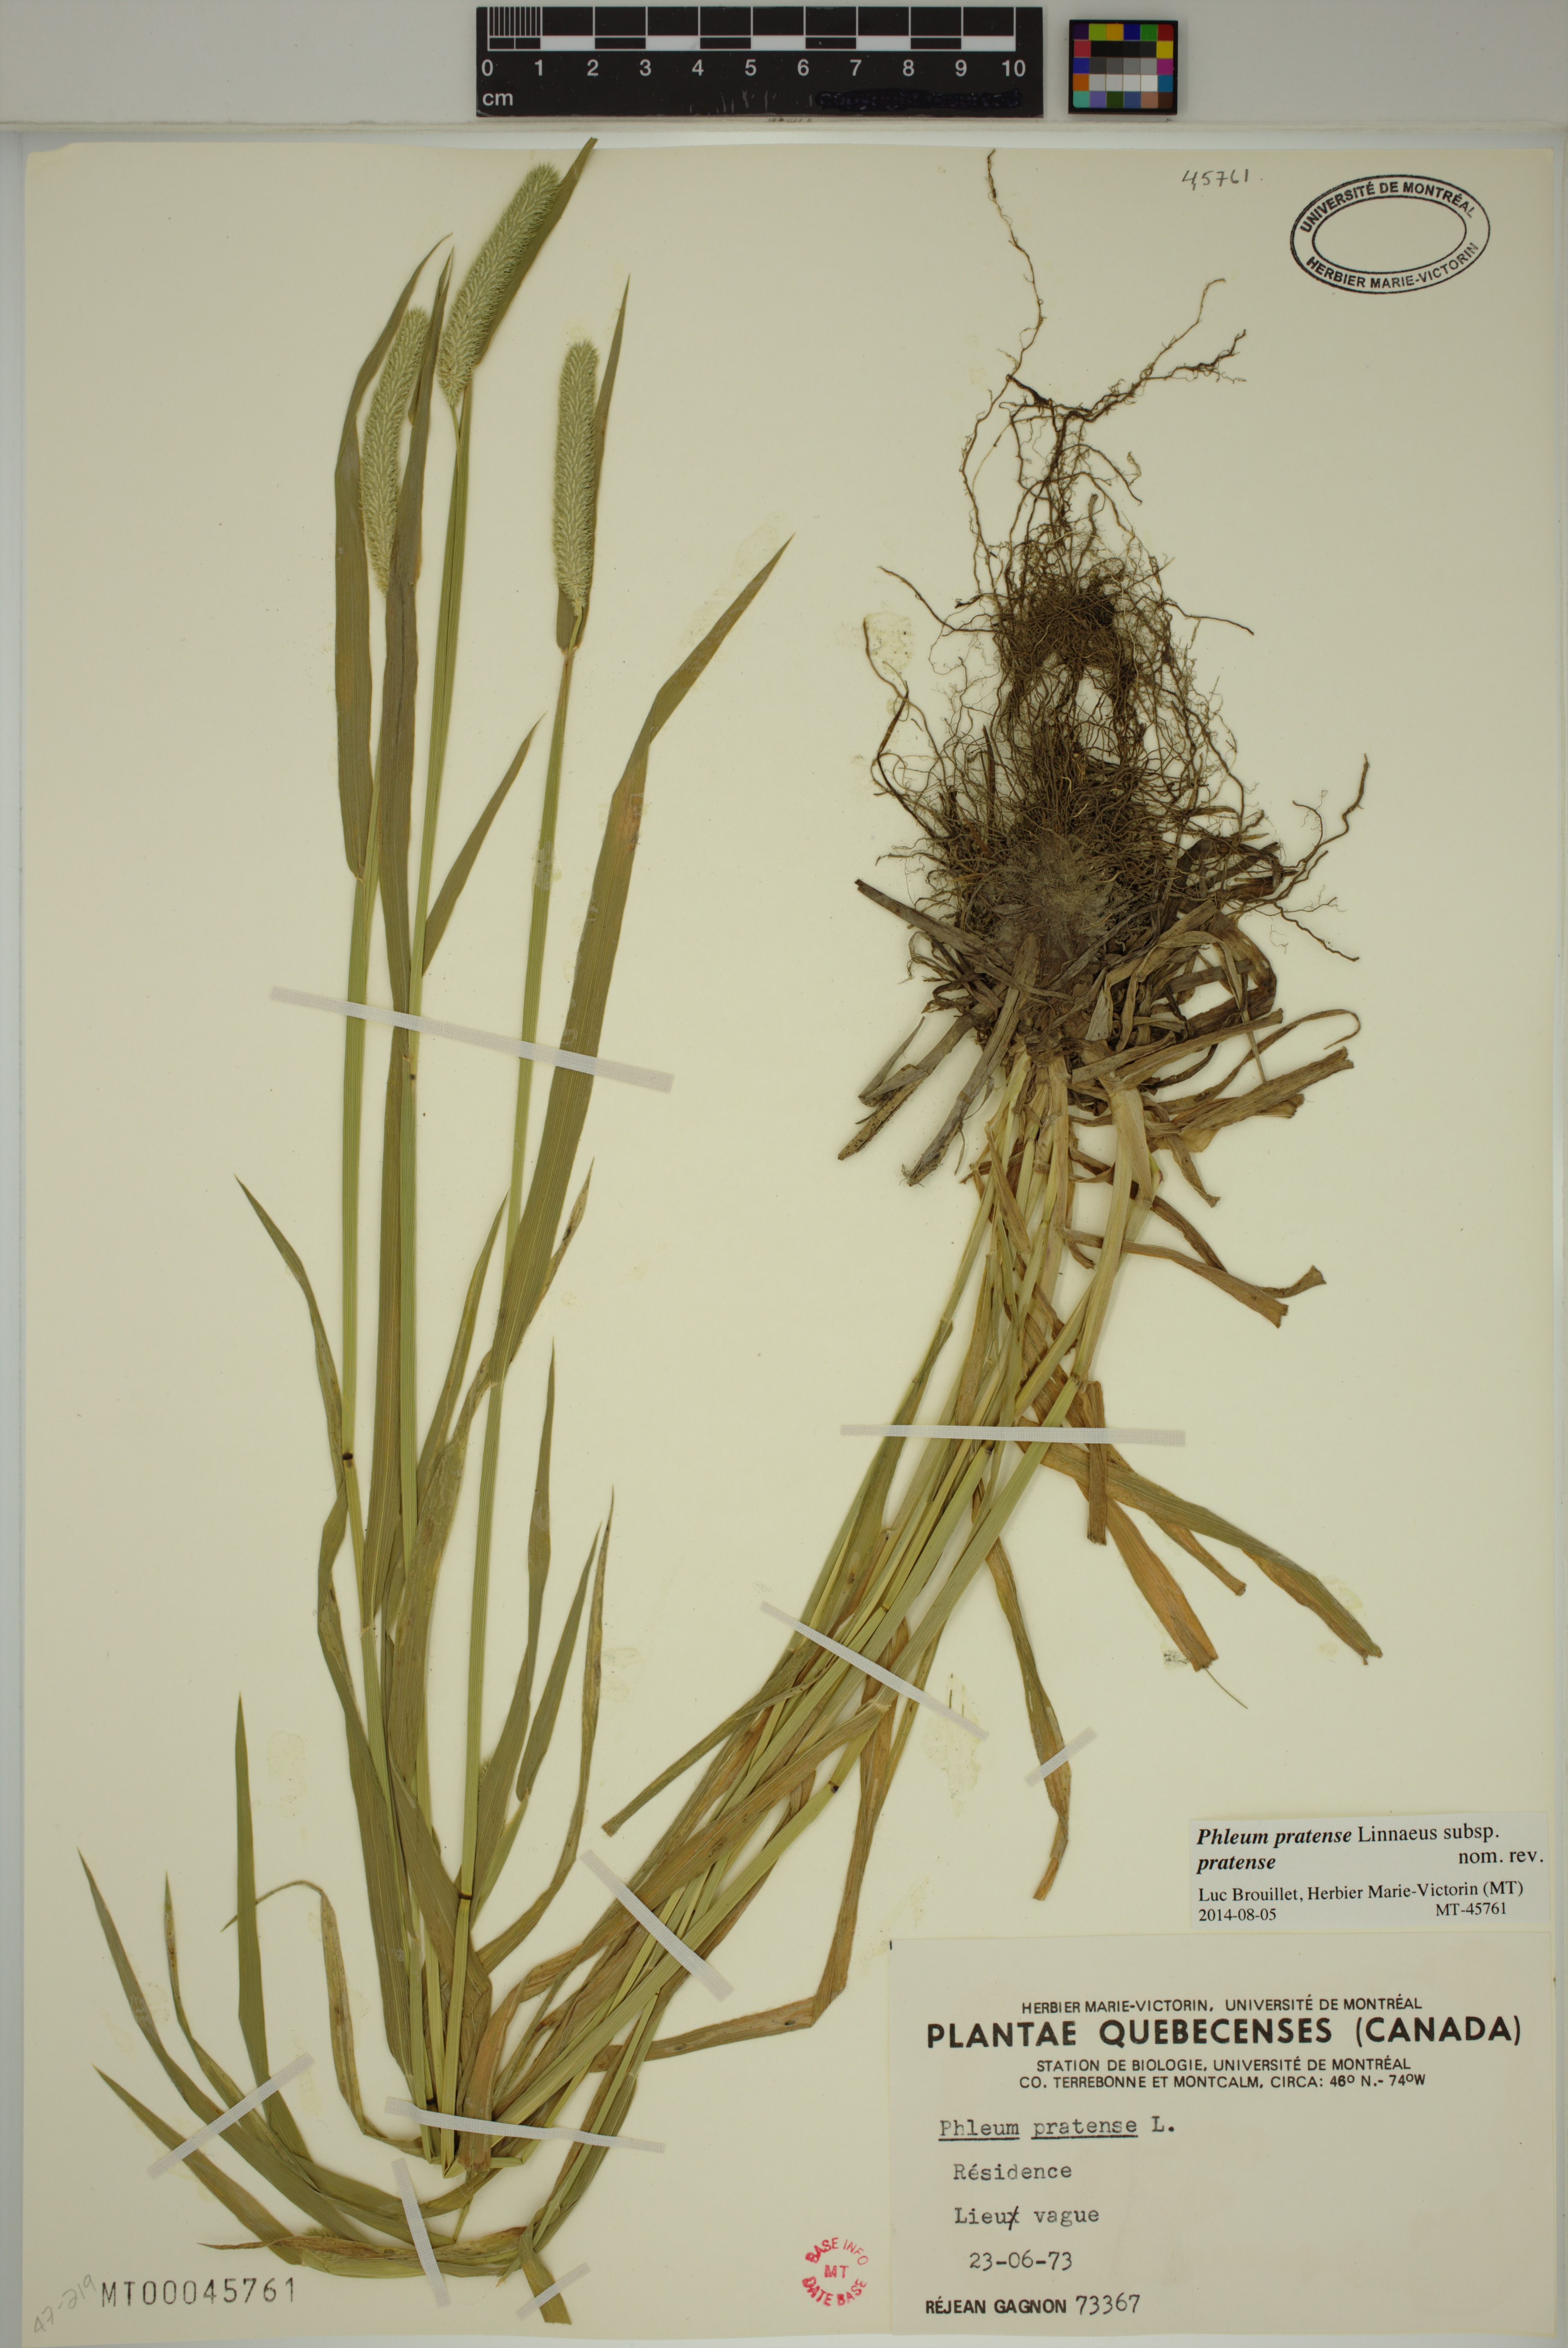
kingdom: Plantae
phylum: Tracheophyta
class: Liliopsida
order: Poales
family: Poaceae
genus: Phleum
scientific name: Phleum pratense
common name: Timothy grass
